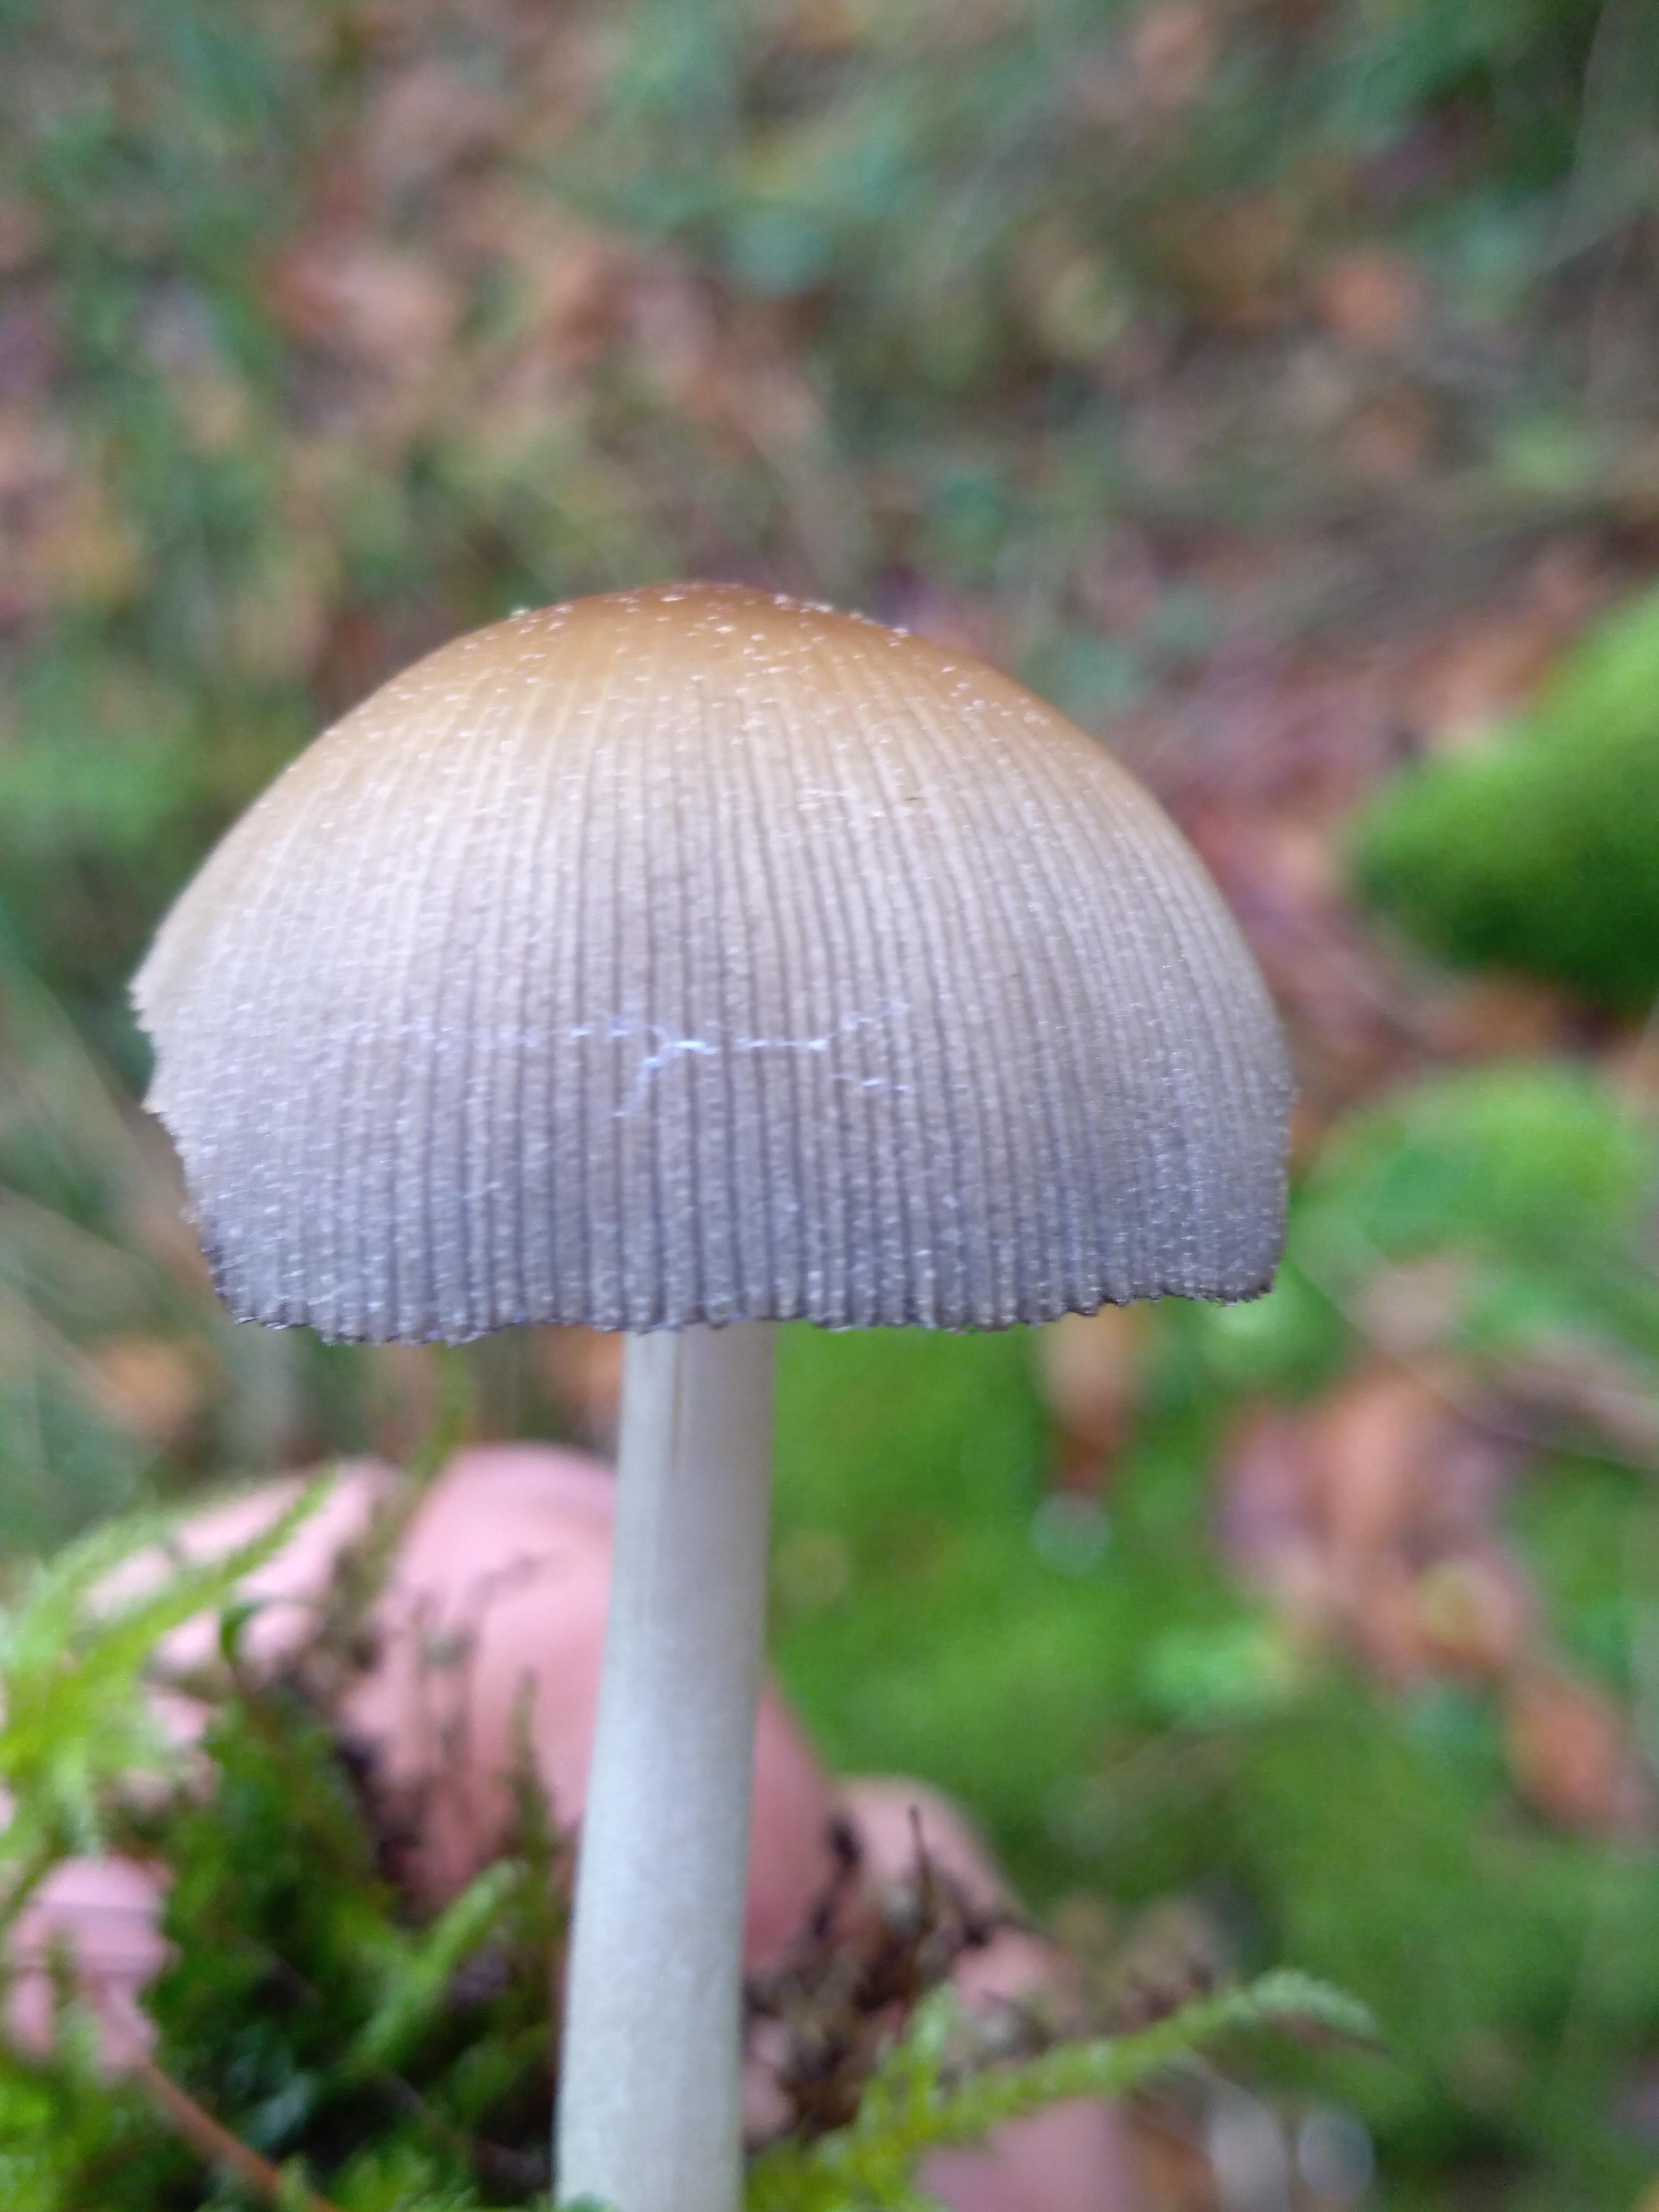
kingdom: Fungi
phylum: Basidiomycota
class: Agaricomycetes
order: Agaricales
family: Psathyrellaceae
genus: Coprinellus
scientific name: Coprinellus micaceus
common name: glimmer-blækhat
